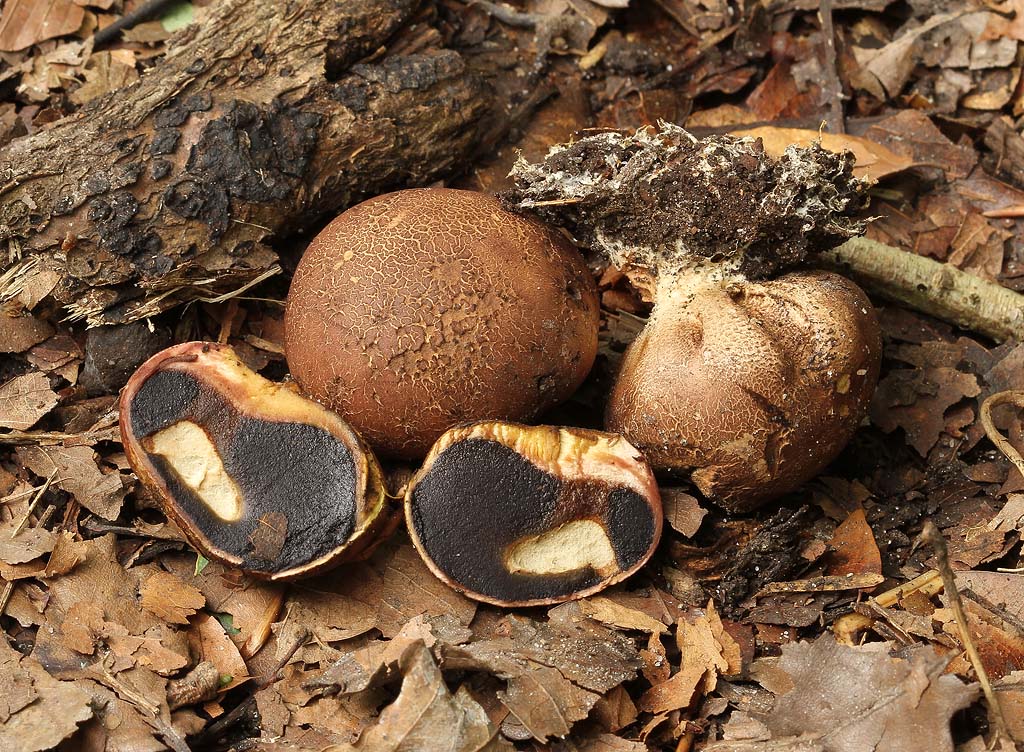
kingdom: Fungi
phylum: Basidiomycota
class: Agaricomycetes
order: Boletales
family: Sclerodermataceae
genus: Scleroderma
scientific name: Scleroderma bovista
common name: bovist-bruskbold
